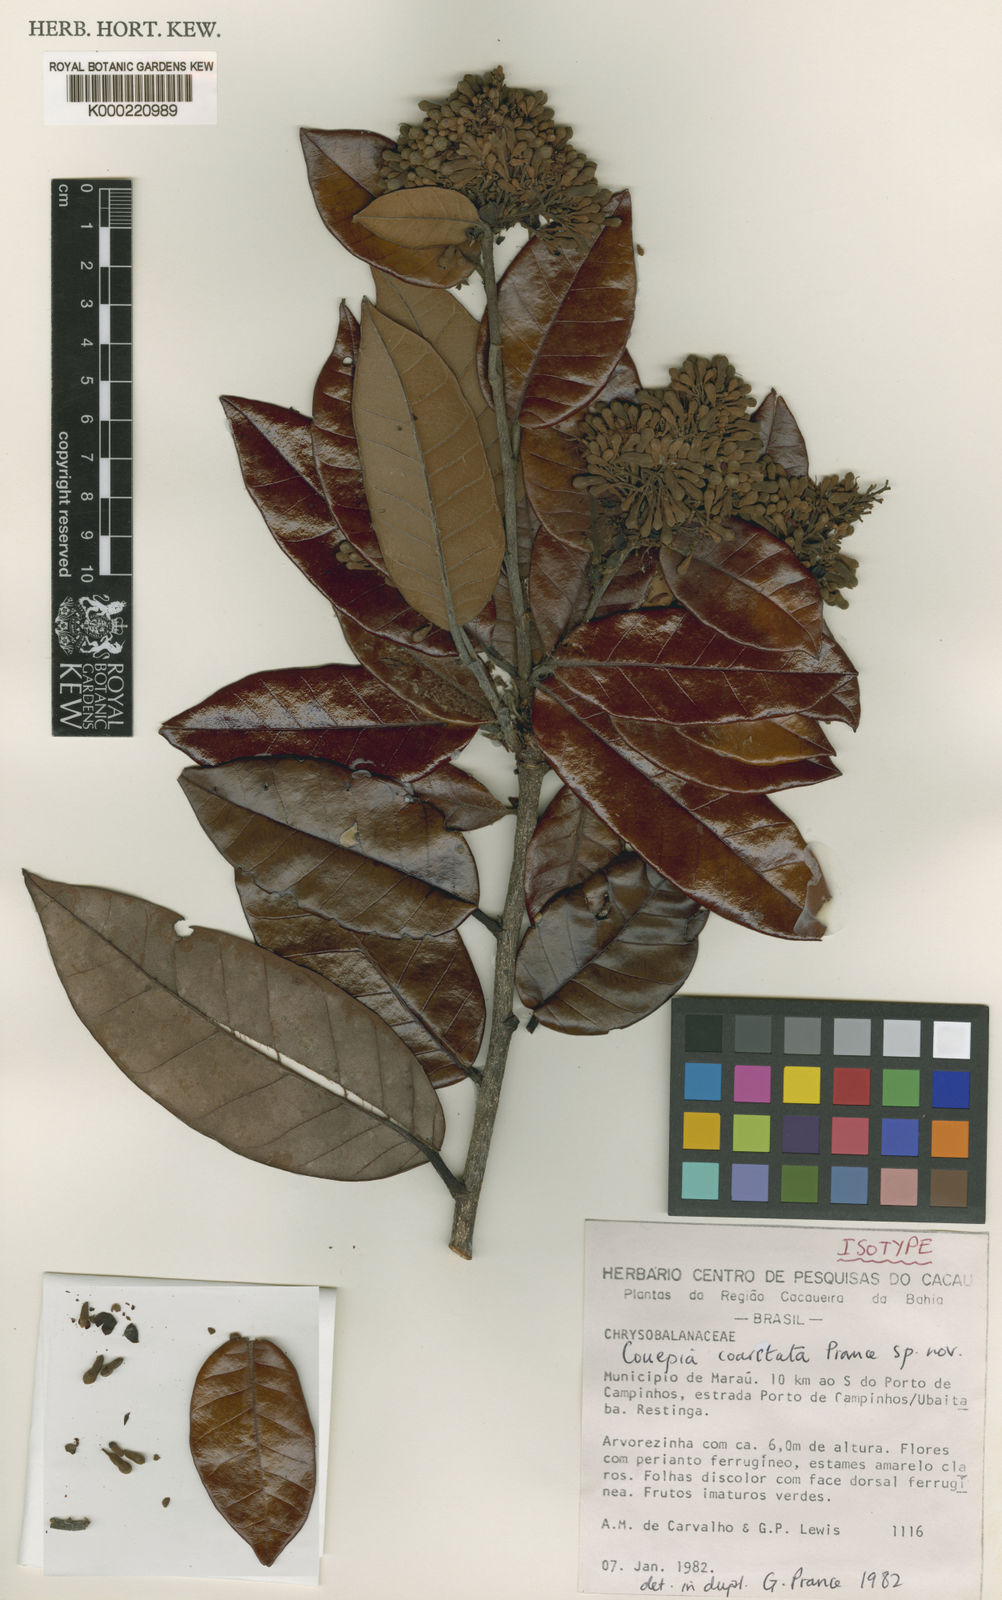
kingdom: Plantae
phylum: Tracheophyta
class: Magnoliopsida
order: Malpighiales
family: Chrysobalanaceae
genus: Couepia
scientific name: Couepia coarctata
